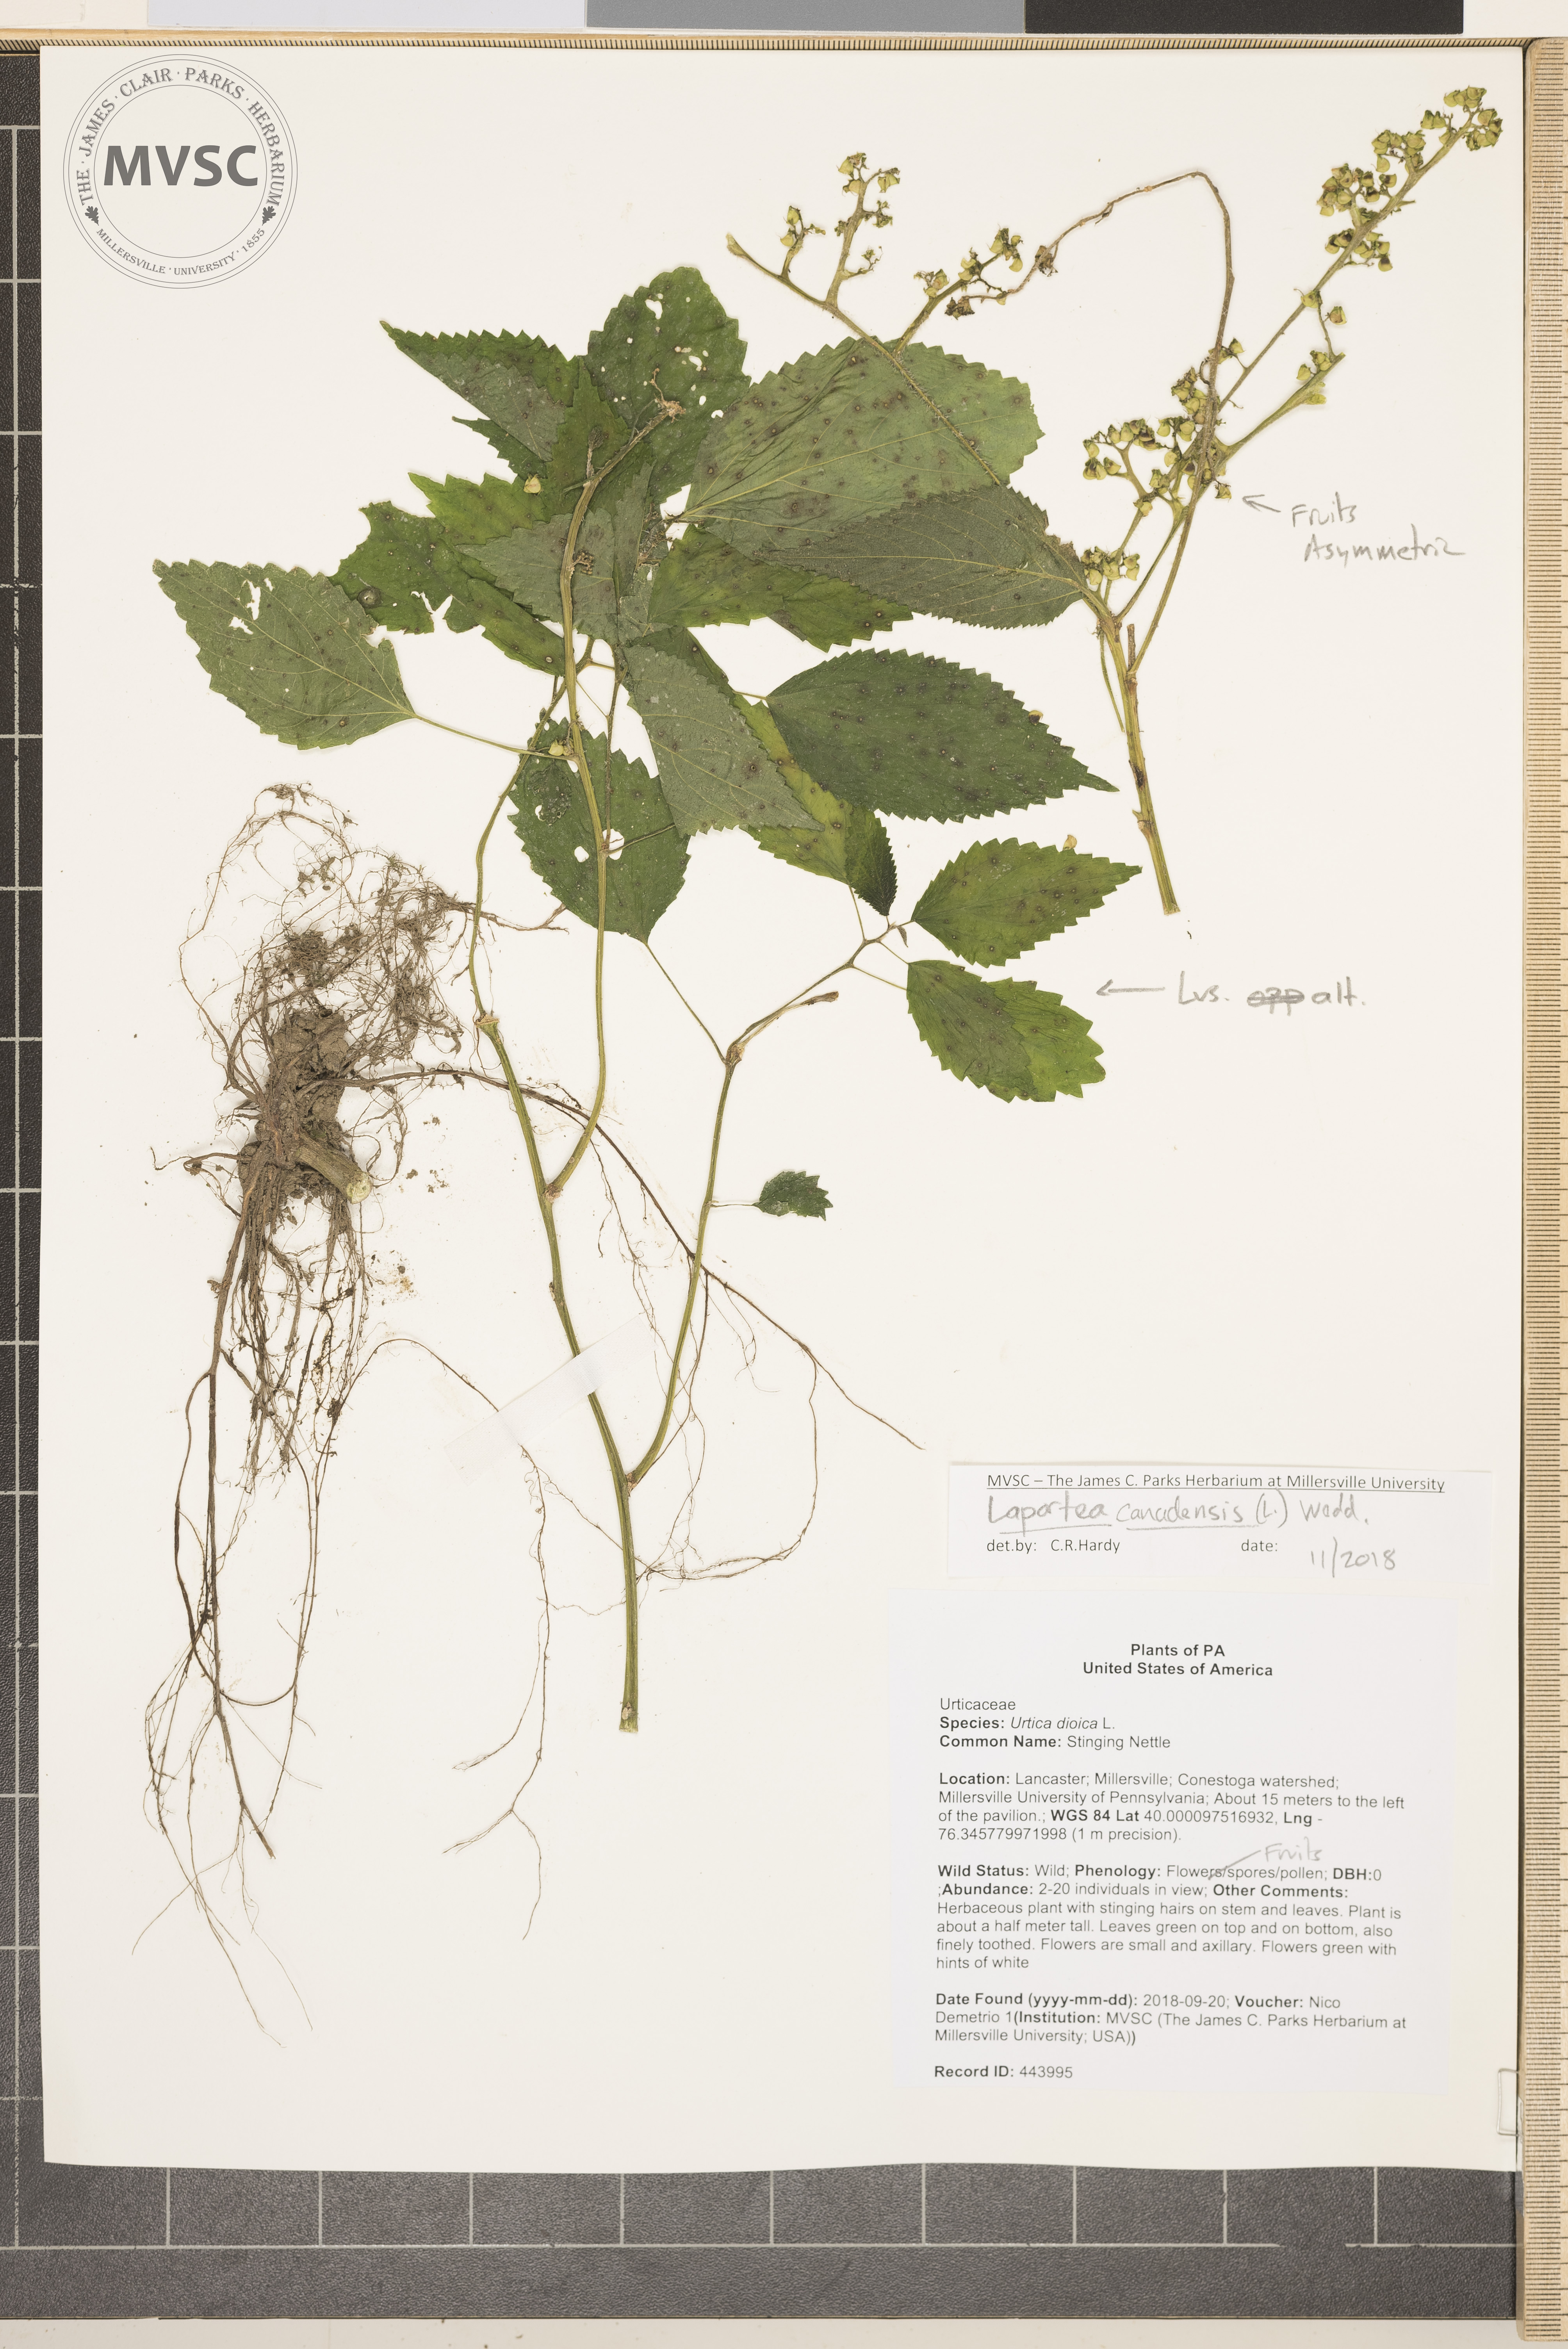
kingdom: Plantae
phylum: Tracheophyta
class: Magnoliopsida
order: Rosales
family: Urticaceae
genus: Laportea
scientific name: Laportea canadensis
